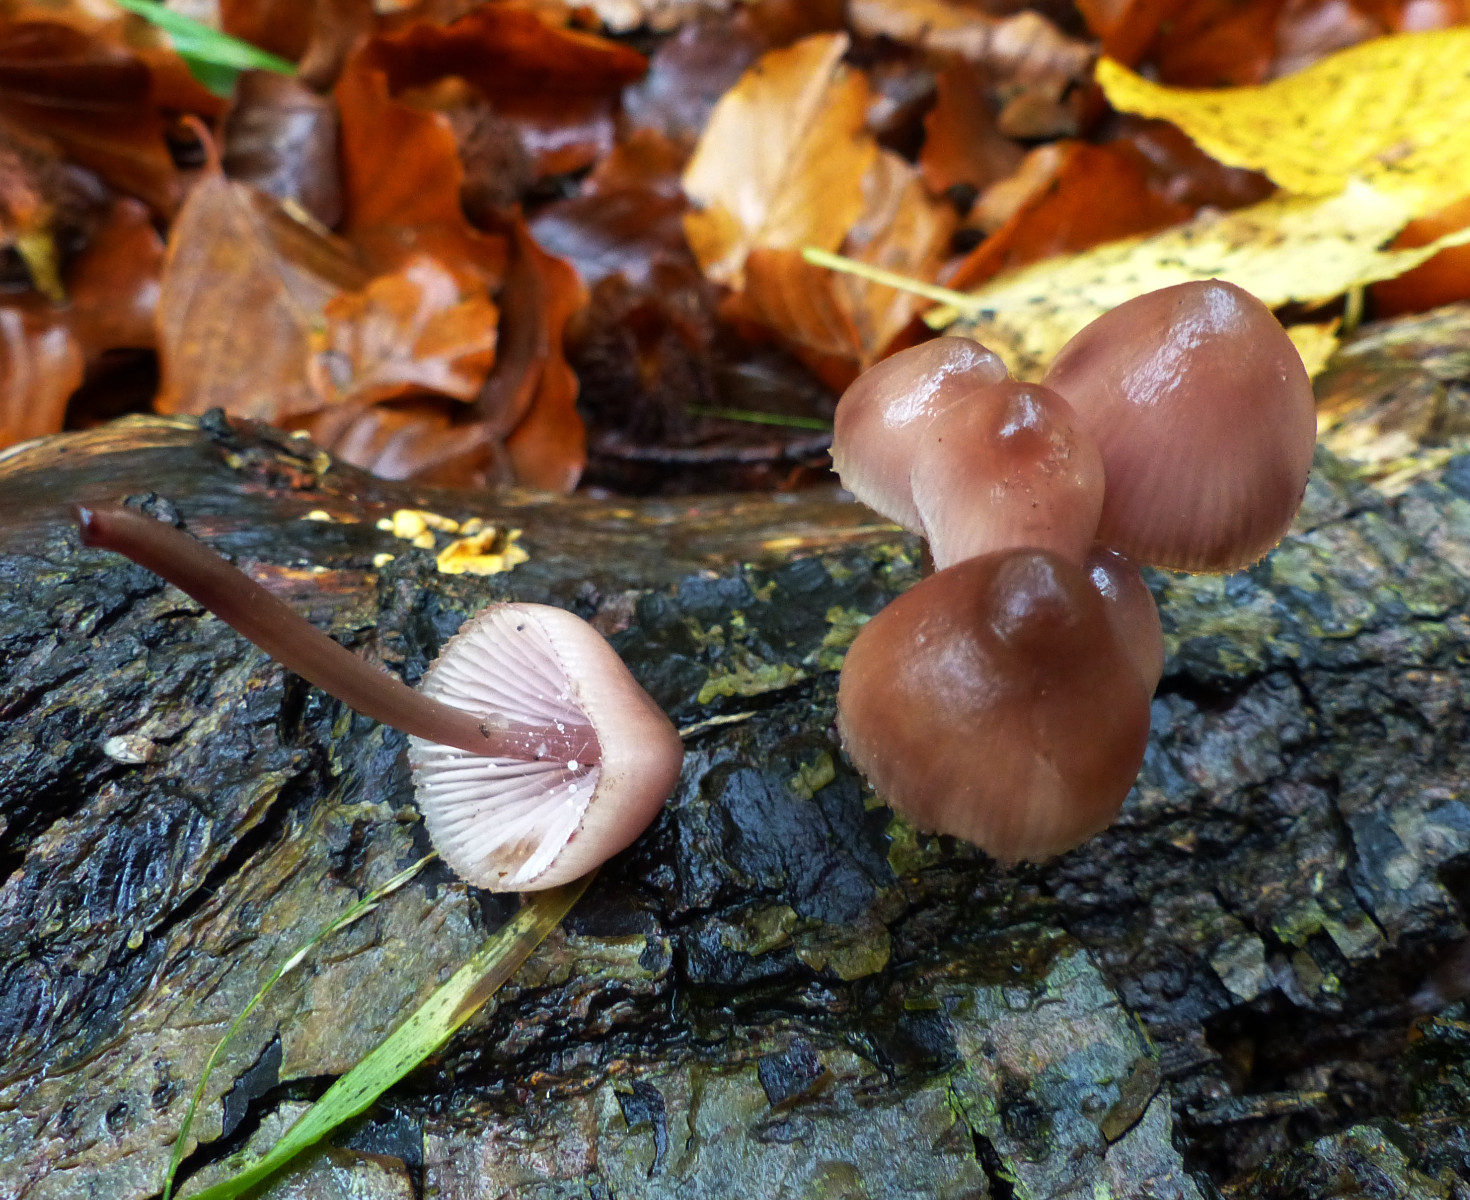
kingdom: Fungi
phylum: Basidiomycota
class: Agaricomycetes
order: Agaricales
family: Mycenaceae
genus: Mycena
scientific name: Mycena haematopus
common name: blødende huesvamp
